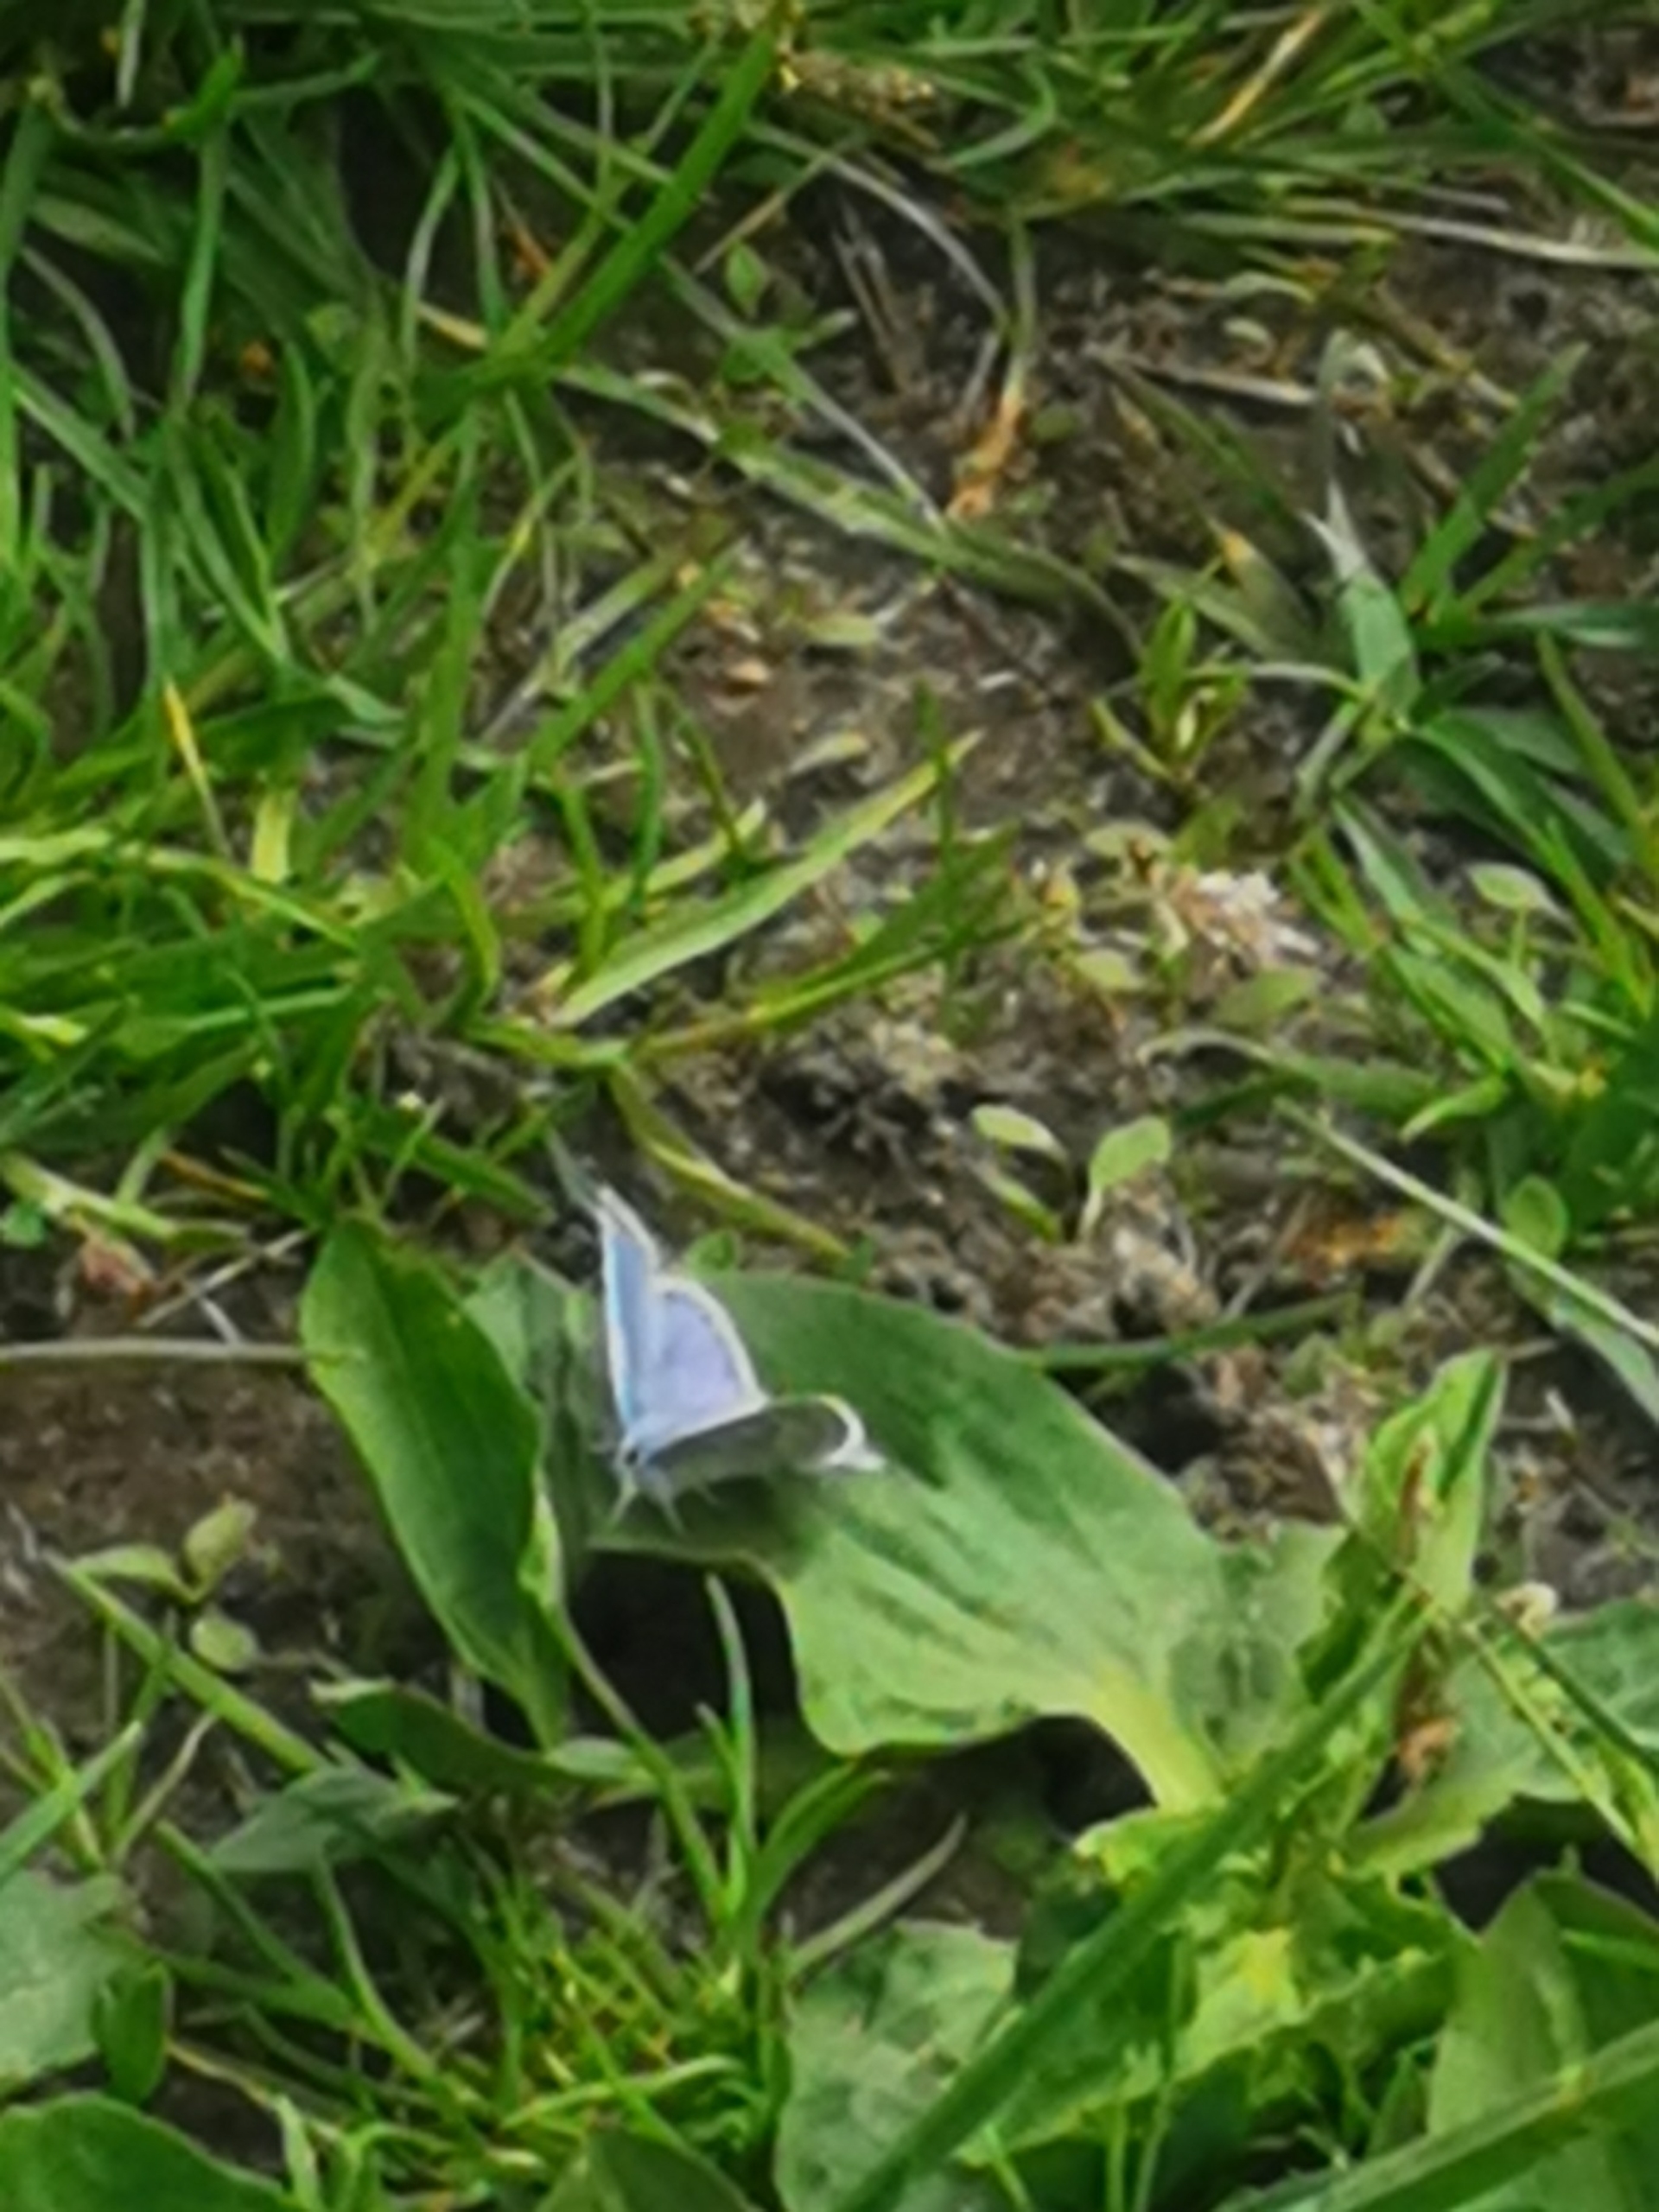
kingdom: Animalia
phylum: Arthropoda
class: Insecta
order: Lepidoptera
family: Lycaenidae
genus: Polyommatus
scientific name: Polyommatus icarus
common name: Almindelig blåfugl
